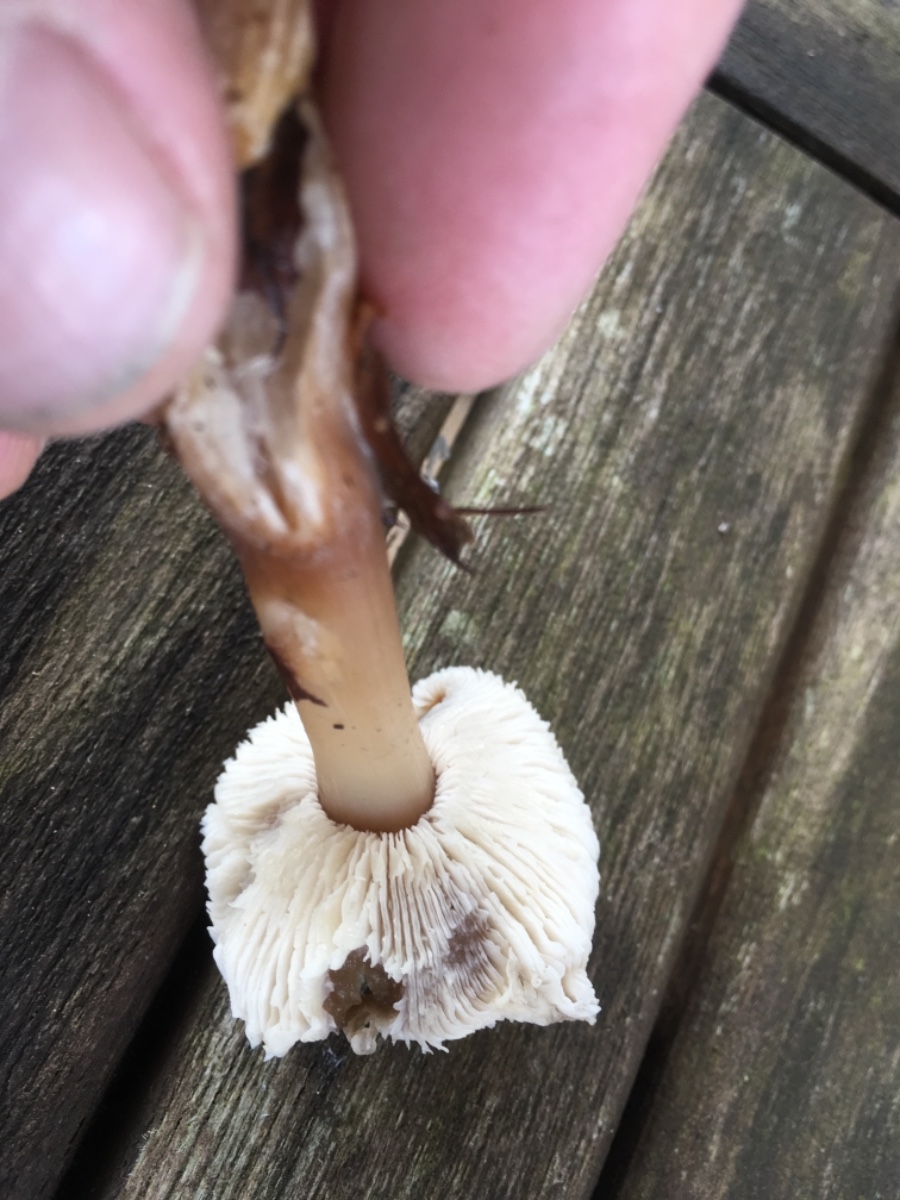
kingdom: Fungi
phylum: Basidiomycota
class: Agaricomycetes
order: Agaricales
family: Omphalotaceae
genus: Rhodocollybia
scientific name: Rhodocollybia
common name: fladhat
